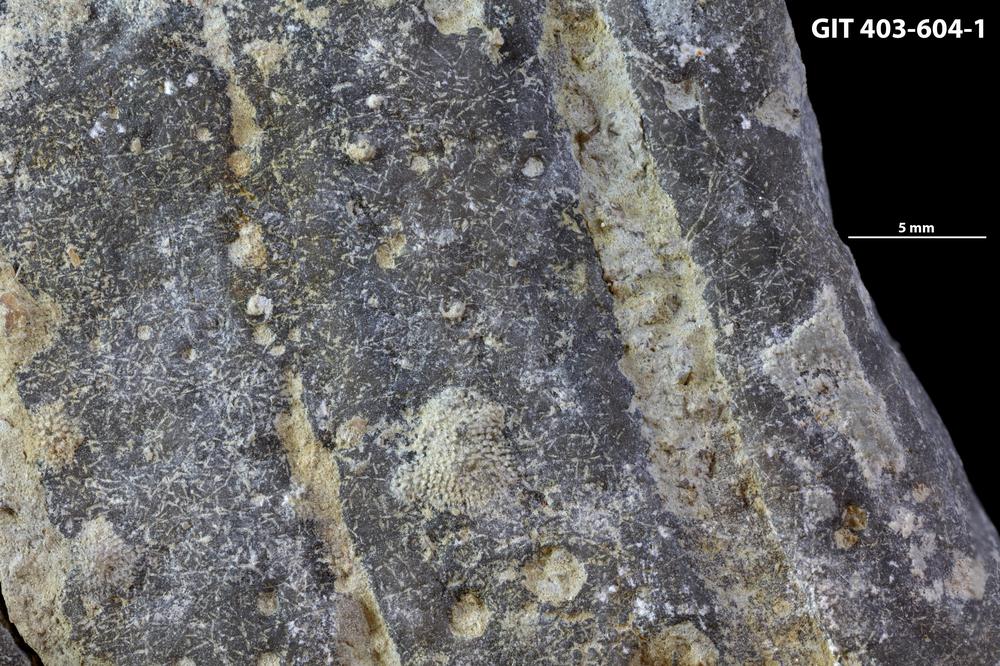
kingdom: Animalia
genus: Pinaceocladichnus
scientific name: Pinaceocladichnus
